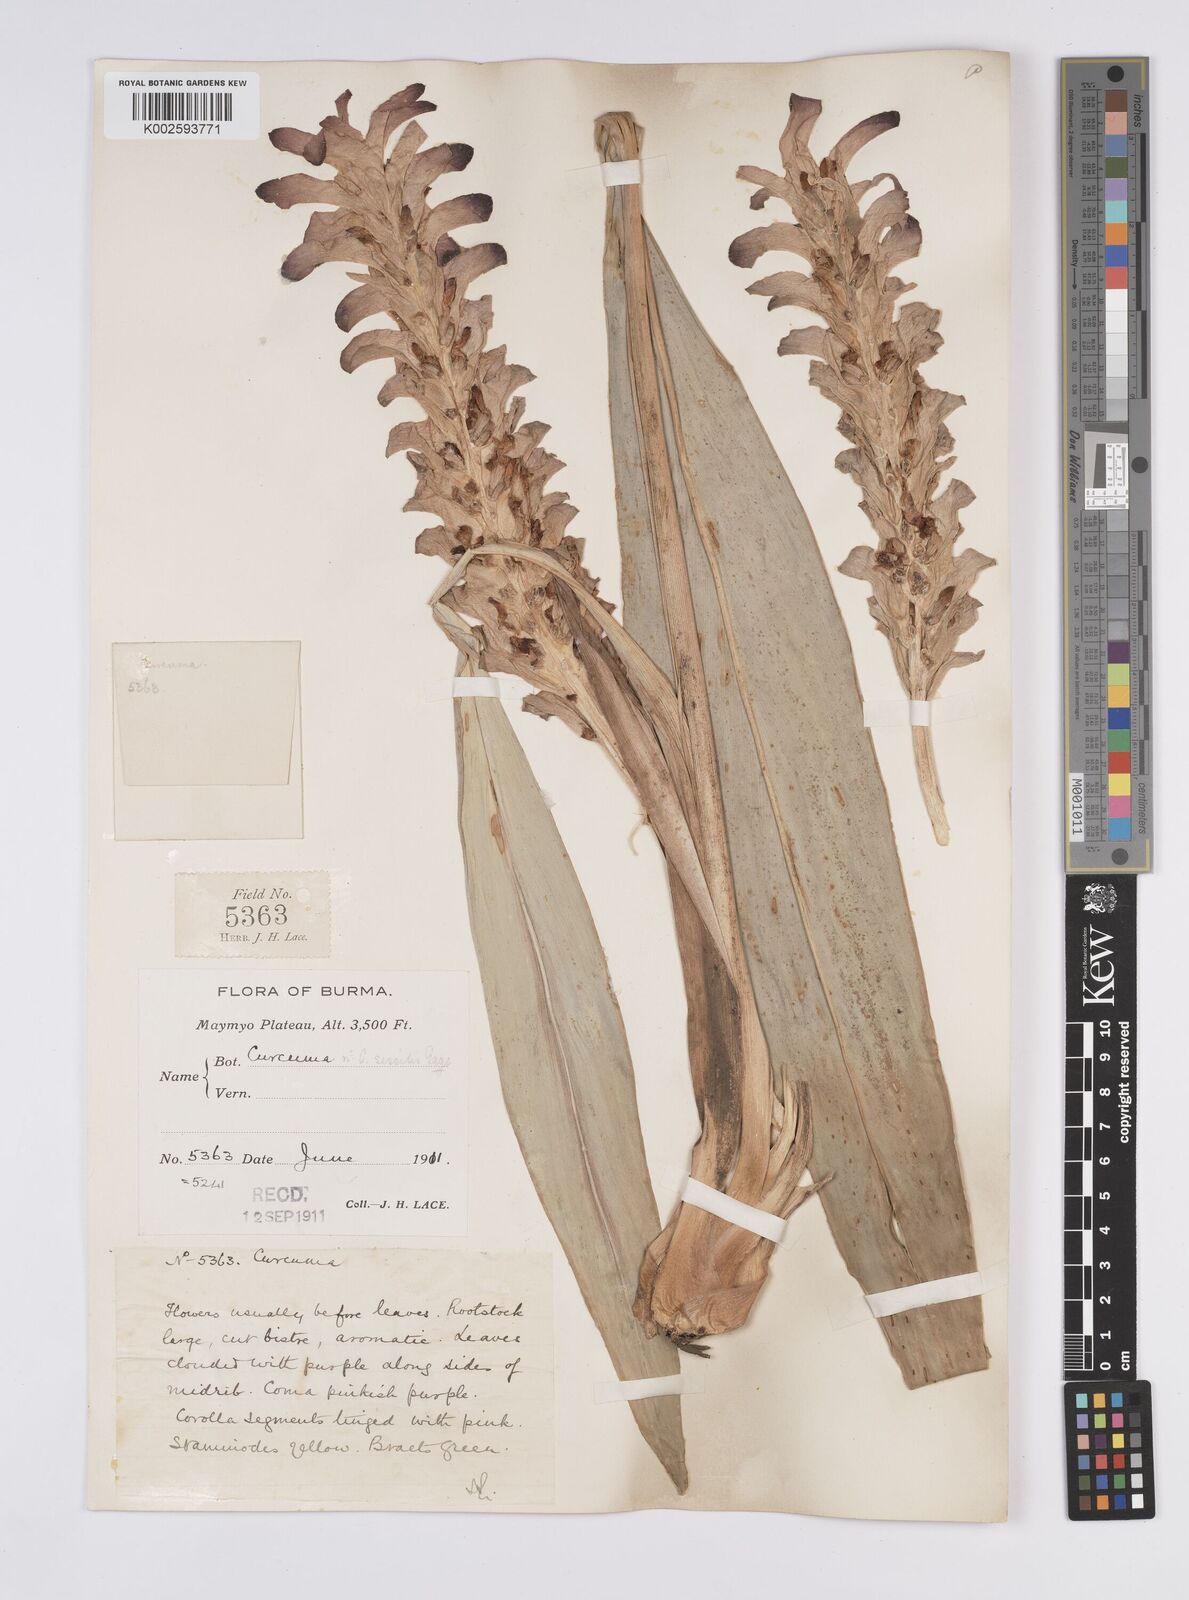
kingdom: Plantae
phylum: Tracheophyta
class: Liliopsida
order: Zingiberales
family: Zingiberaceae
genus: Curcuma
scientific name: Curcuma
